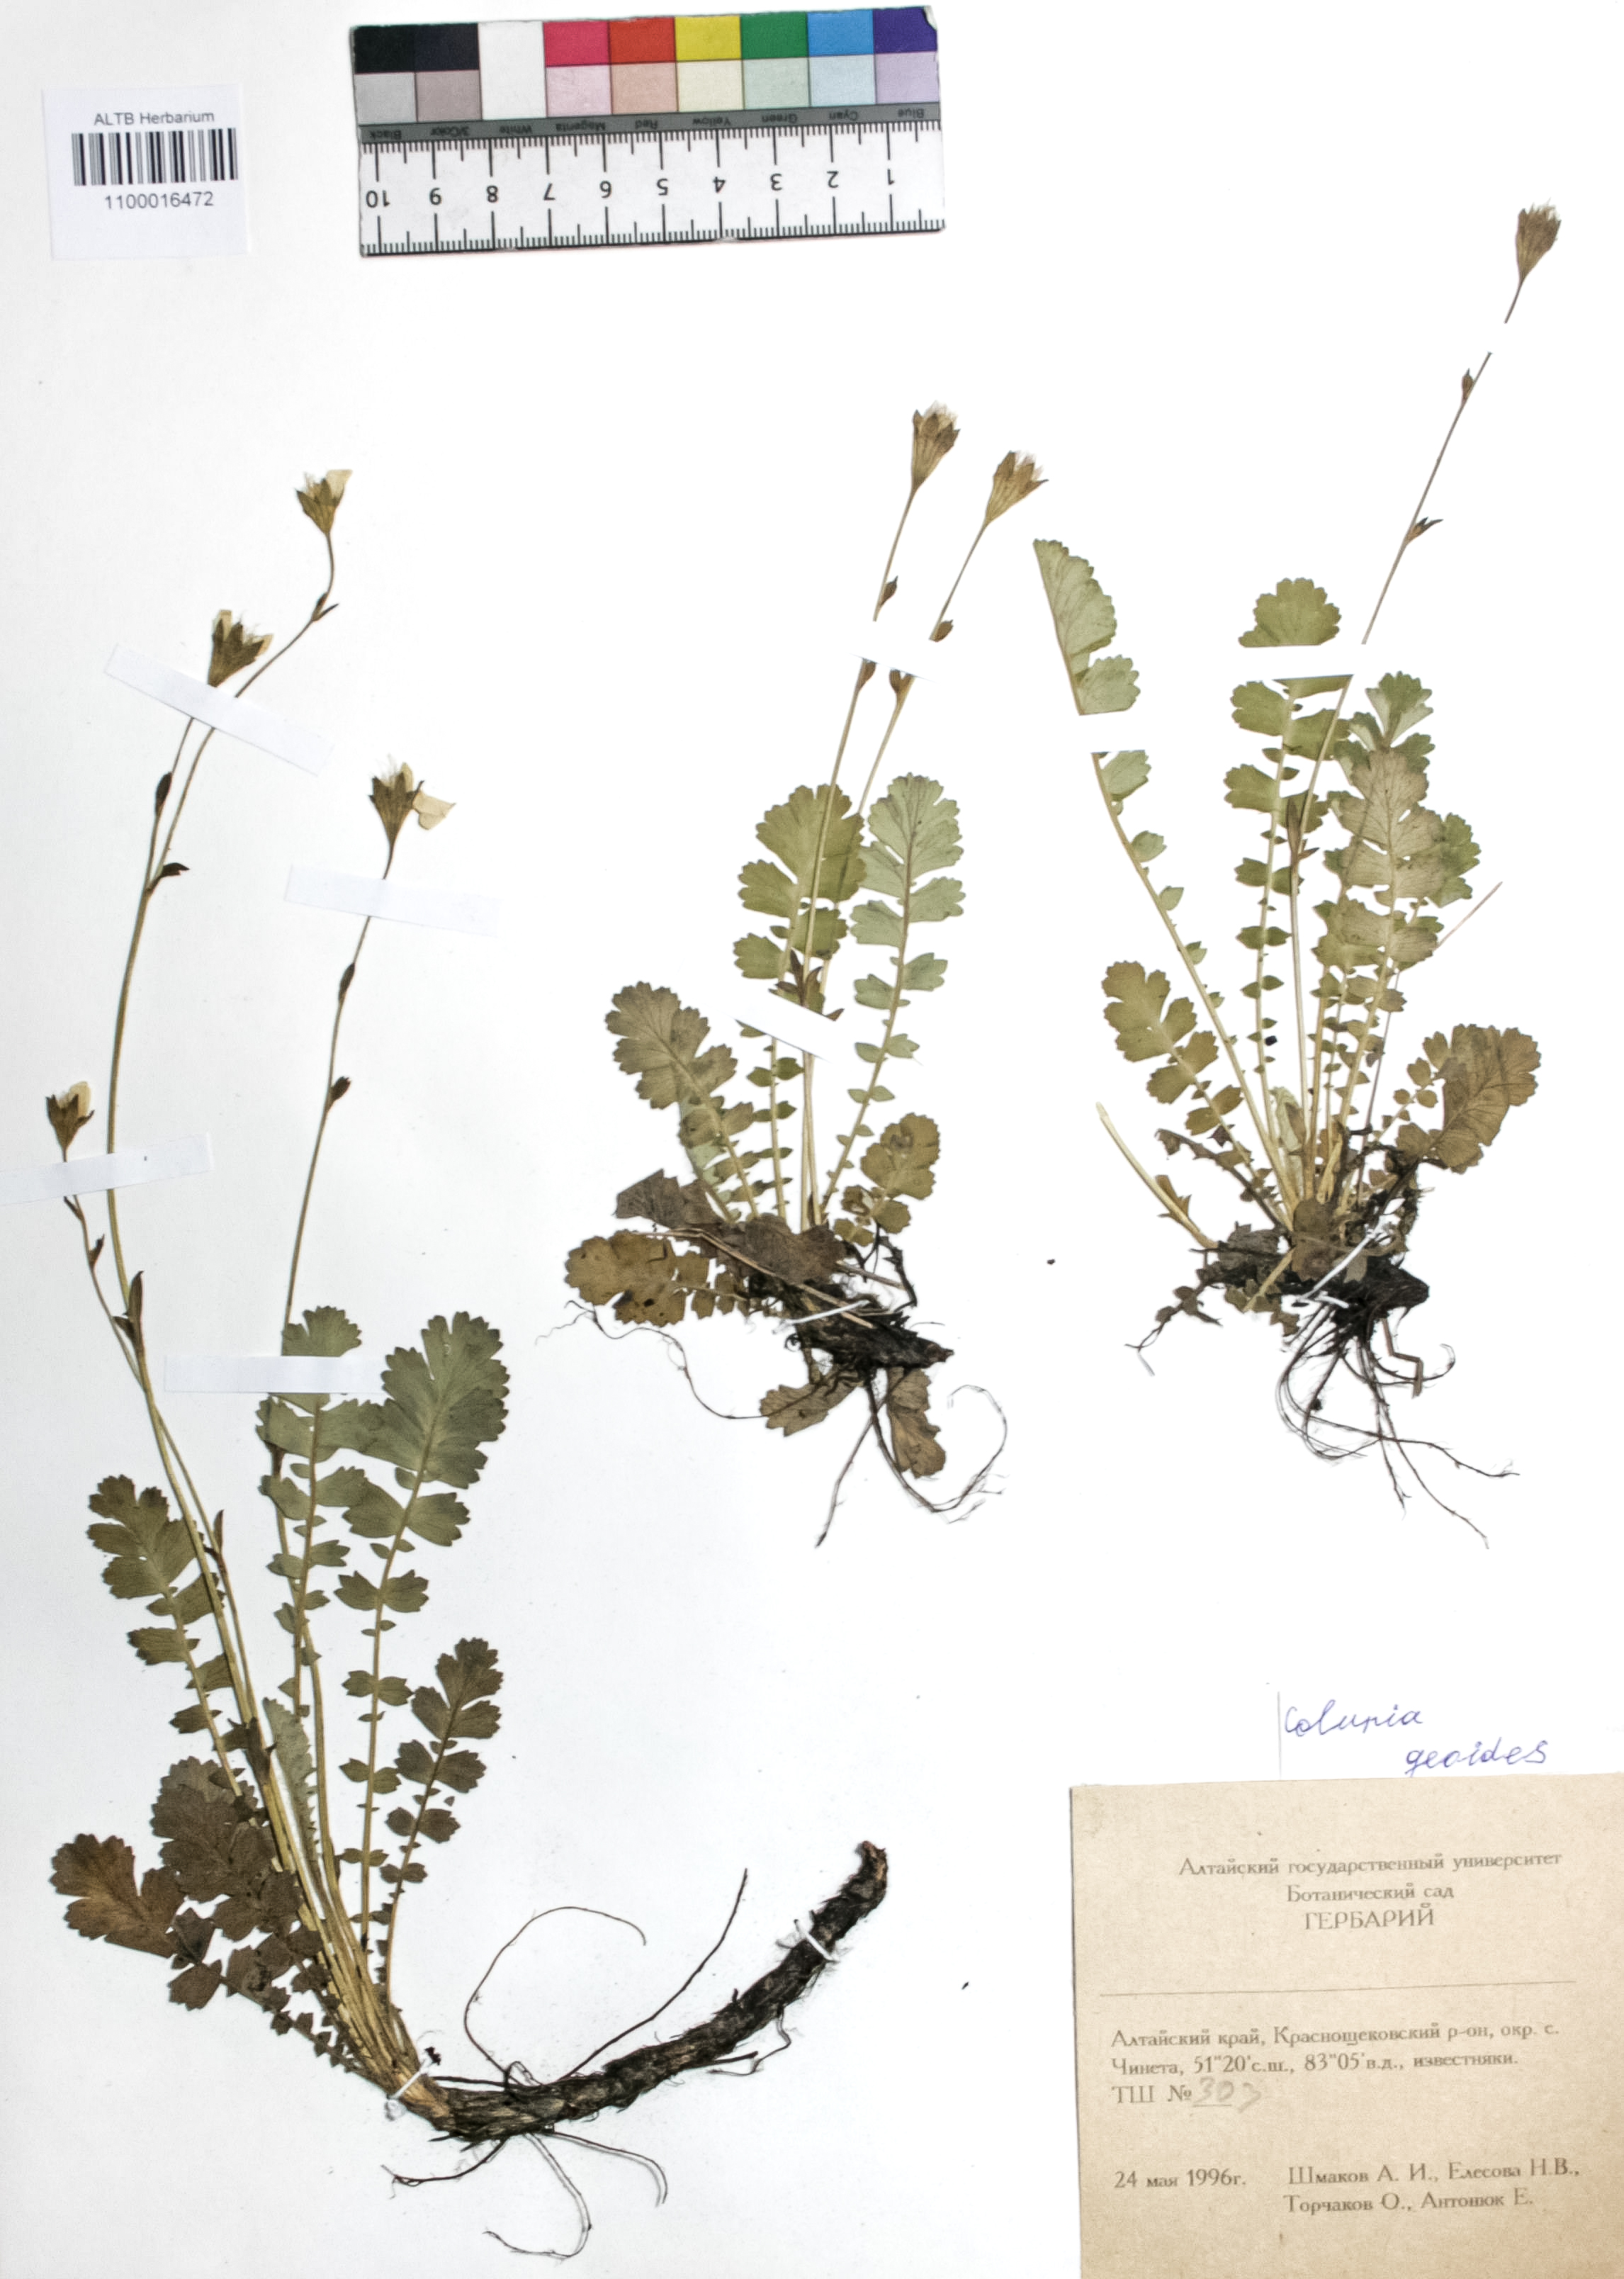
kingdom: Plantae
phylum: Tracheophyta
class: Magnoliopsida
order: Rosales
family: Rosaceae
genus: Geum
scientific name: Geum geoides
